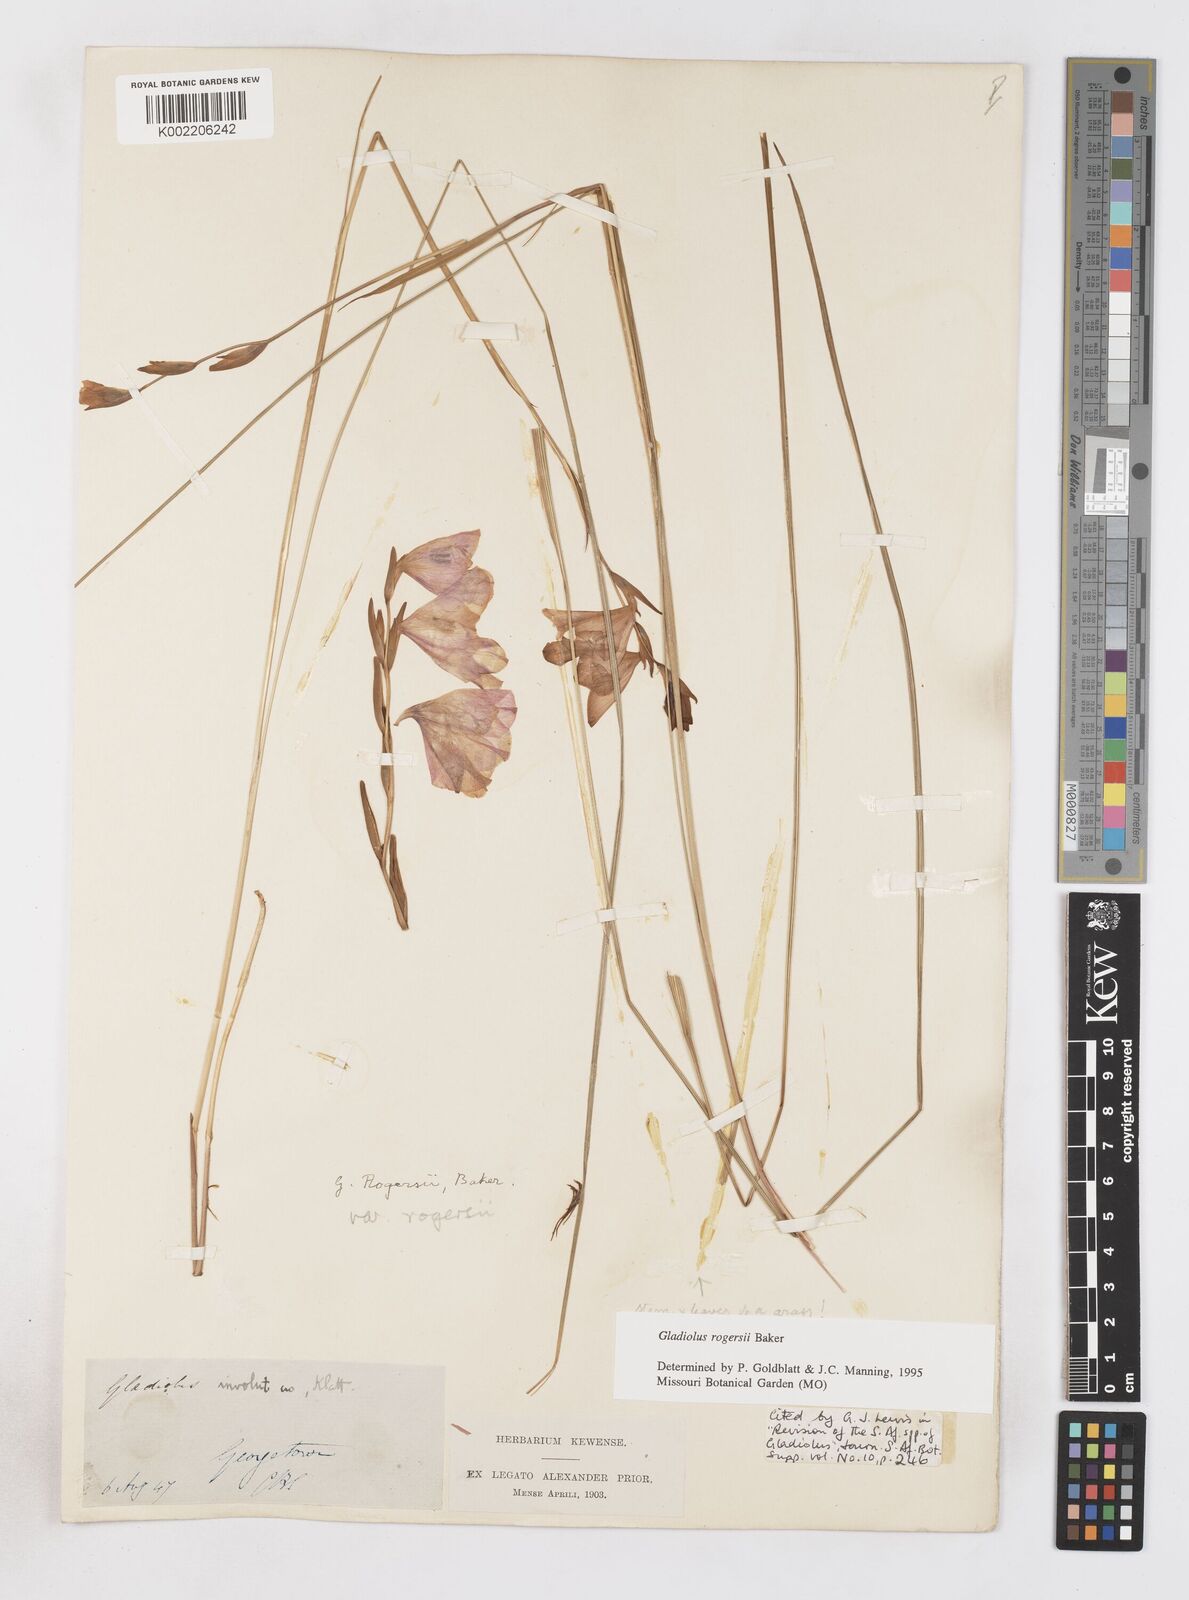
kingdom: Plantae
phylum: Tracheophyta
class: Liliopsida
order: Asparagales
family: Iridaceae
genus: Gladiolus
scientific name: Gladiolus rogersii
